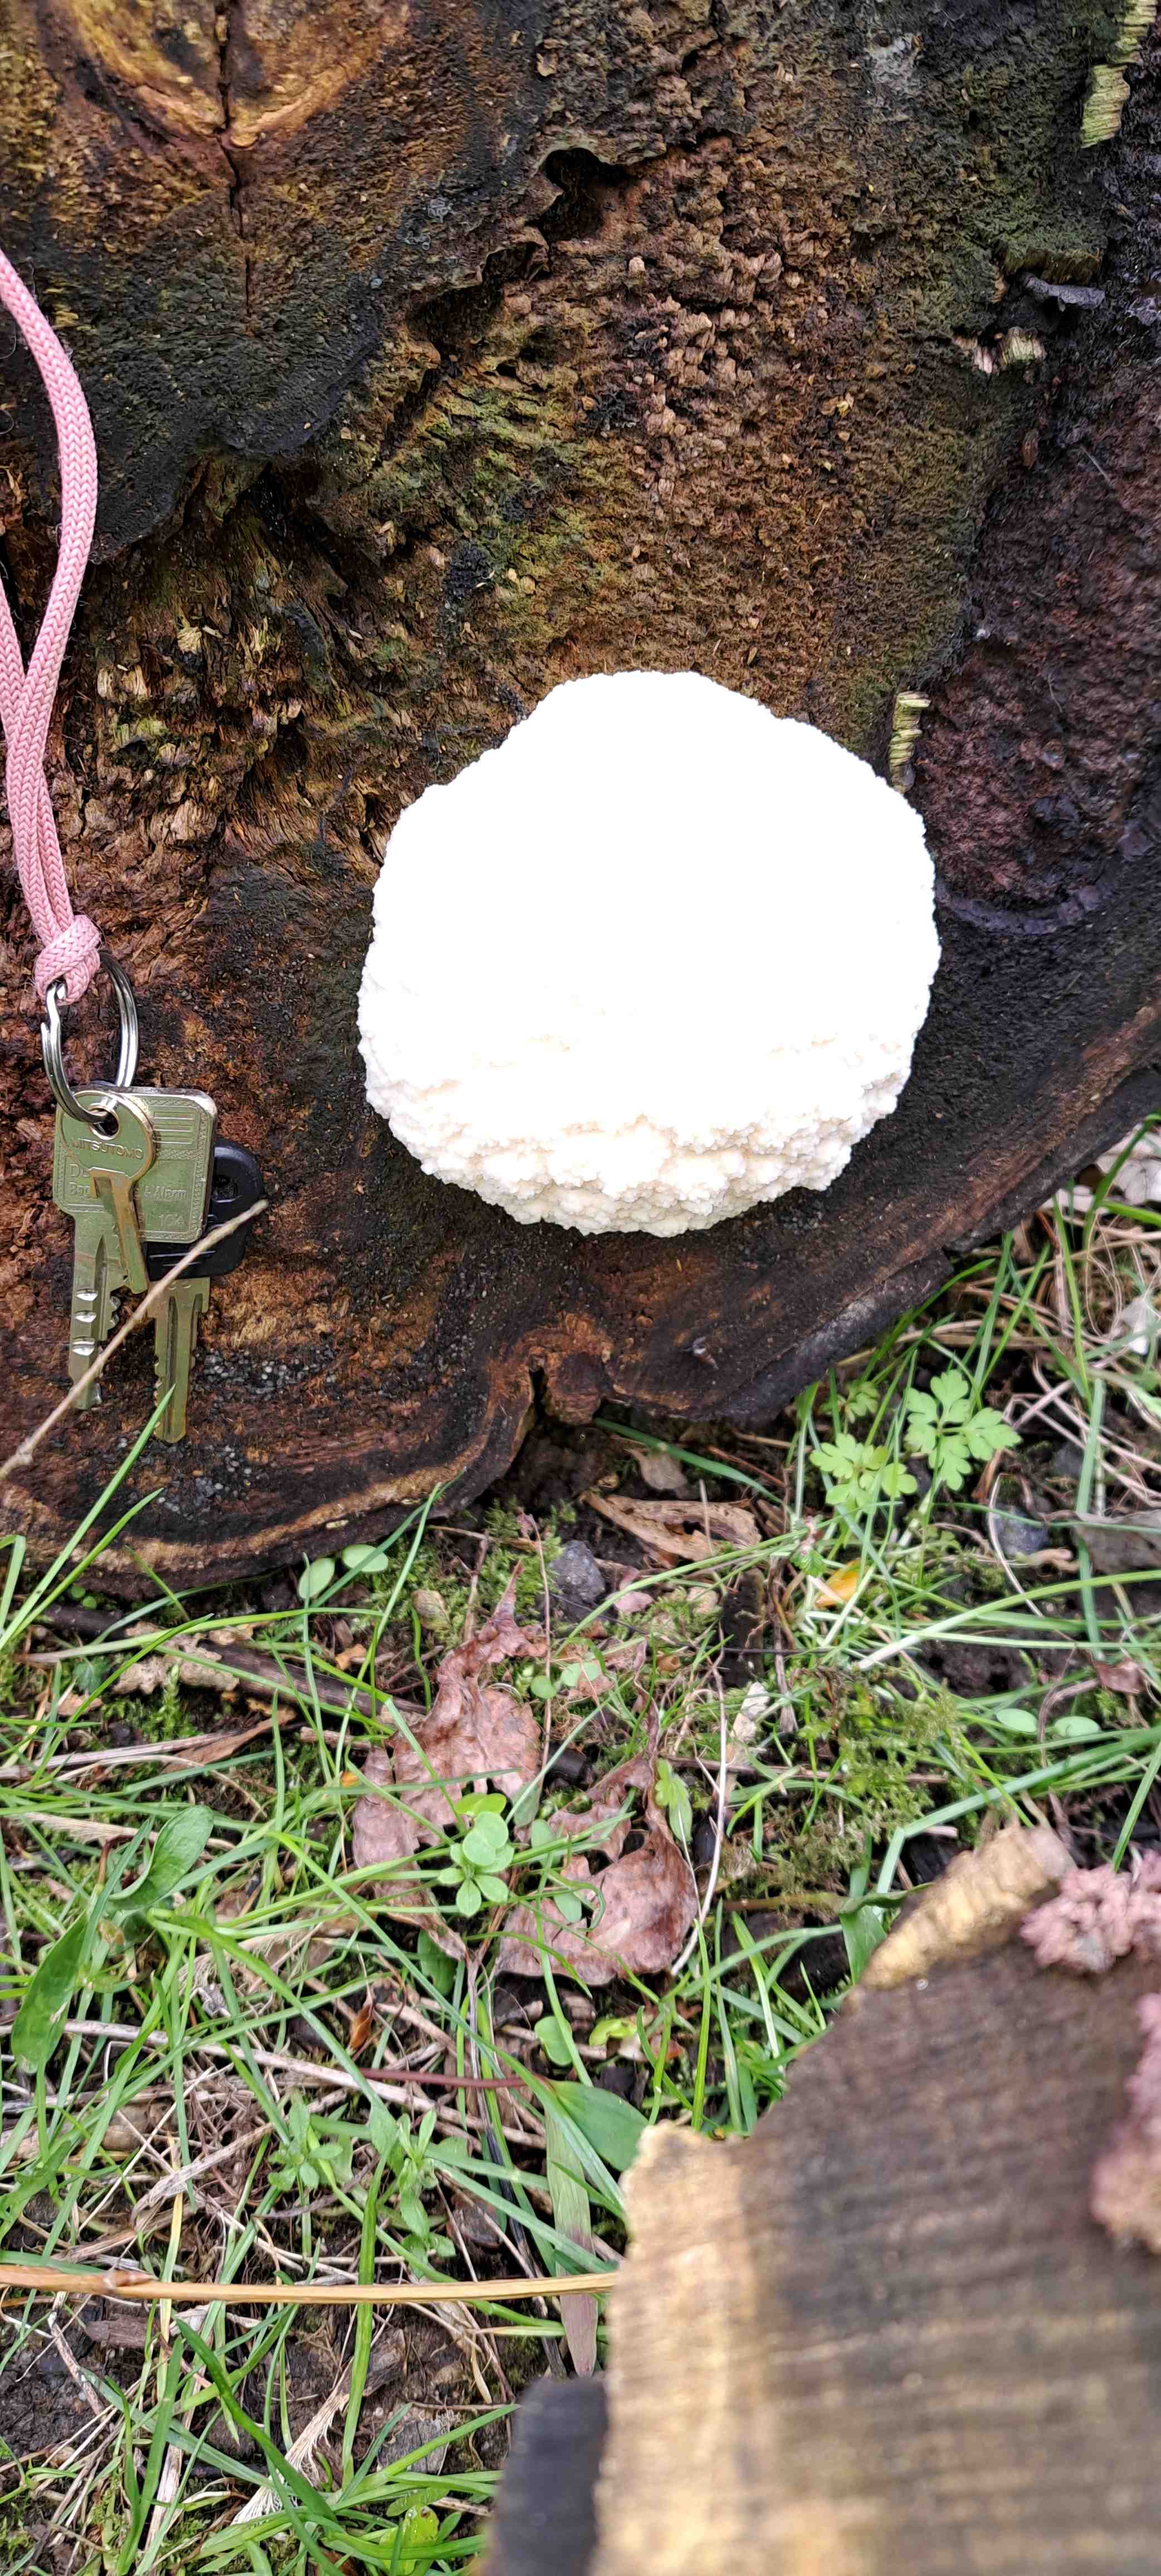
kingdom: Protozoa
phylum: Mycetozoa
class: Myxomycetes
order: Cribrariales
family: Tubiferaceae
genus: Reticularia
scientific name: Reticularia lycoperdon
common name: skinnende støvpude
